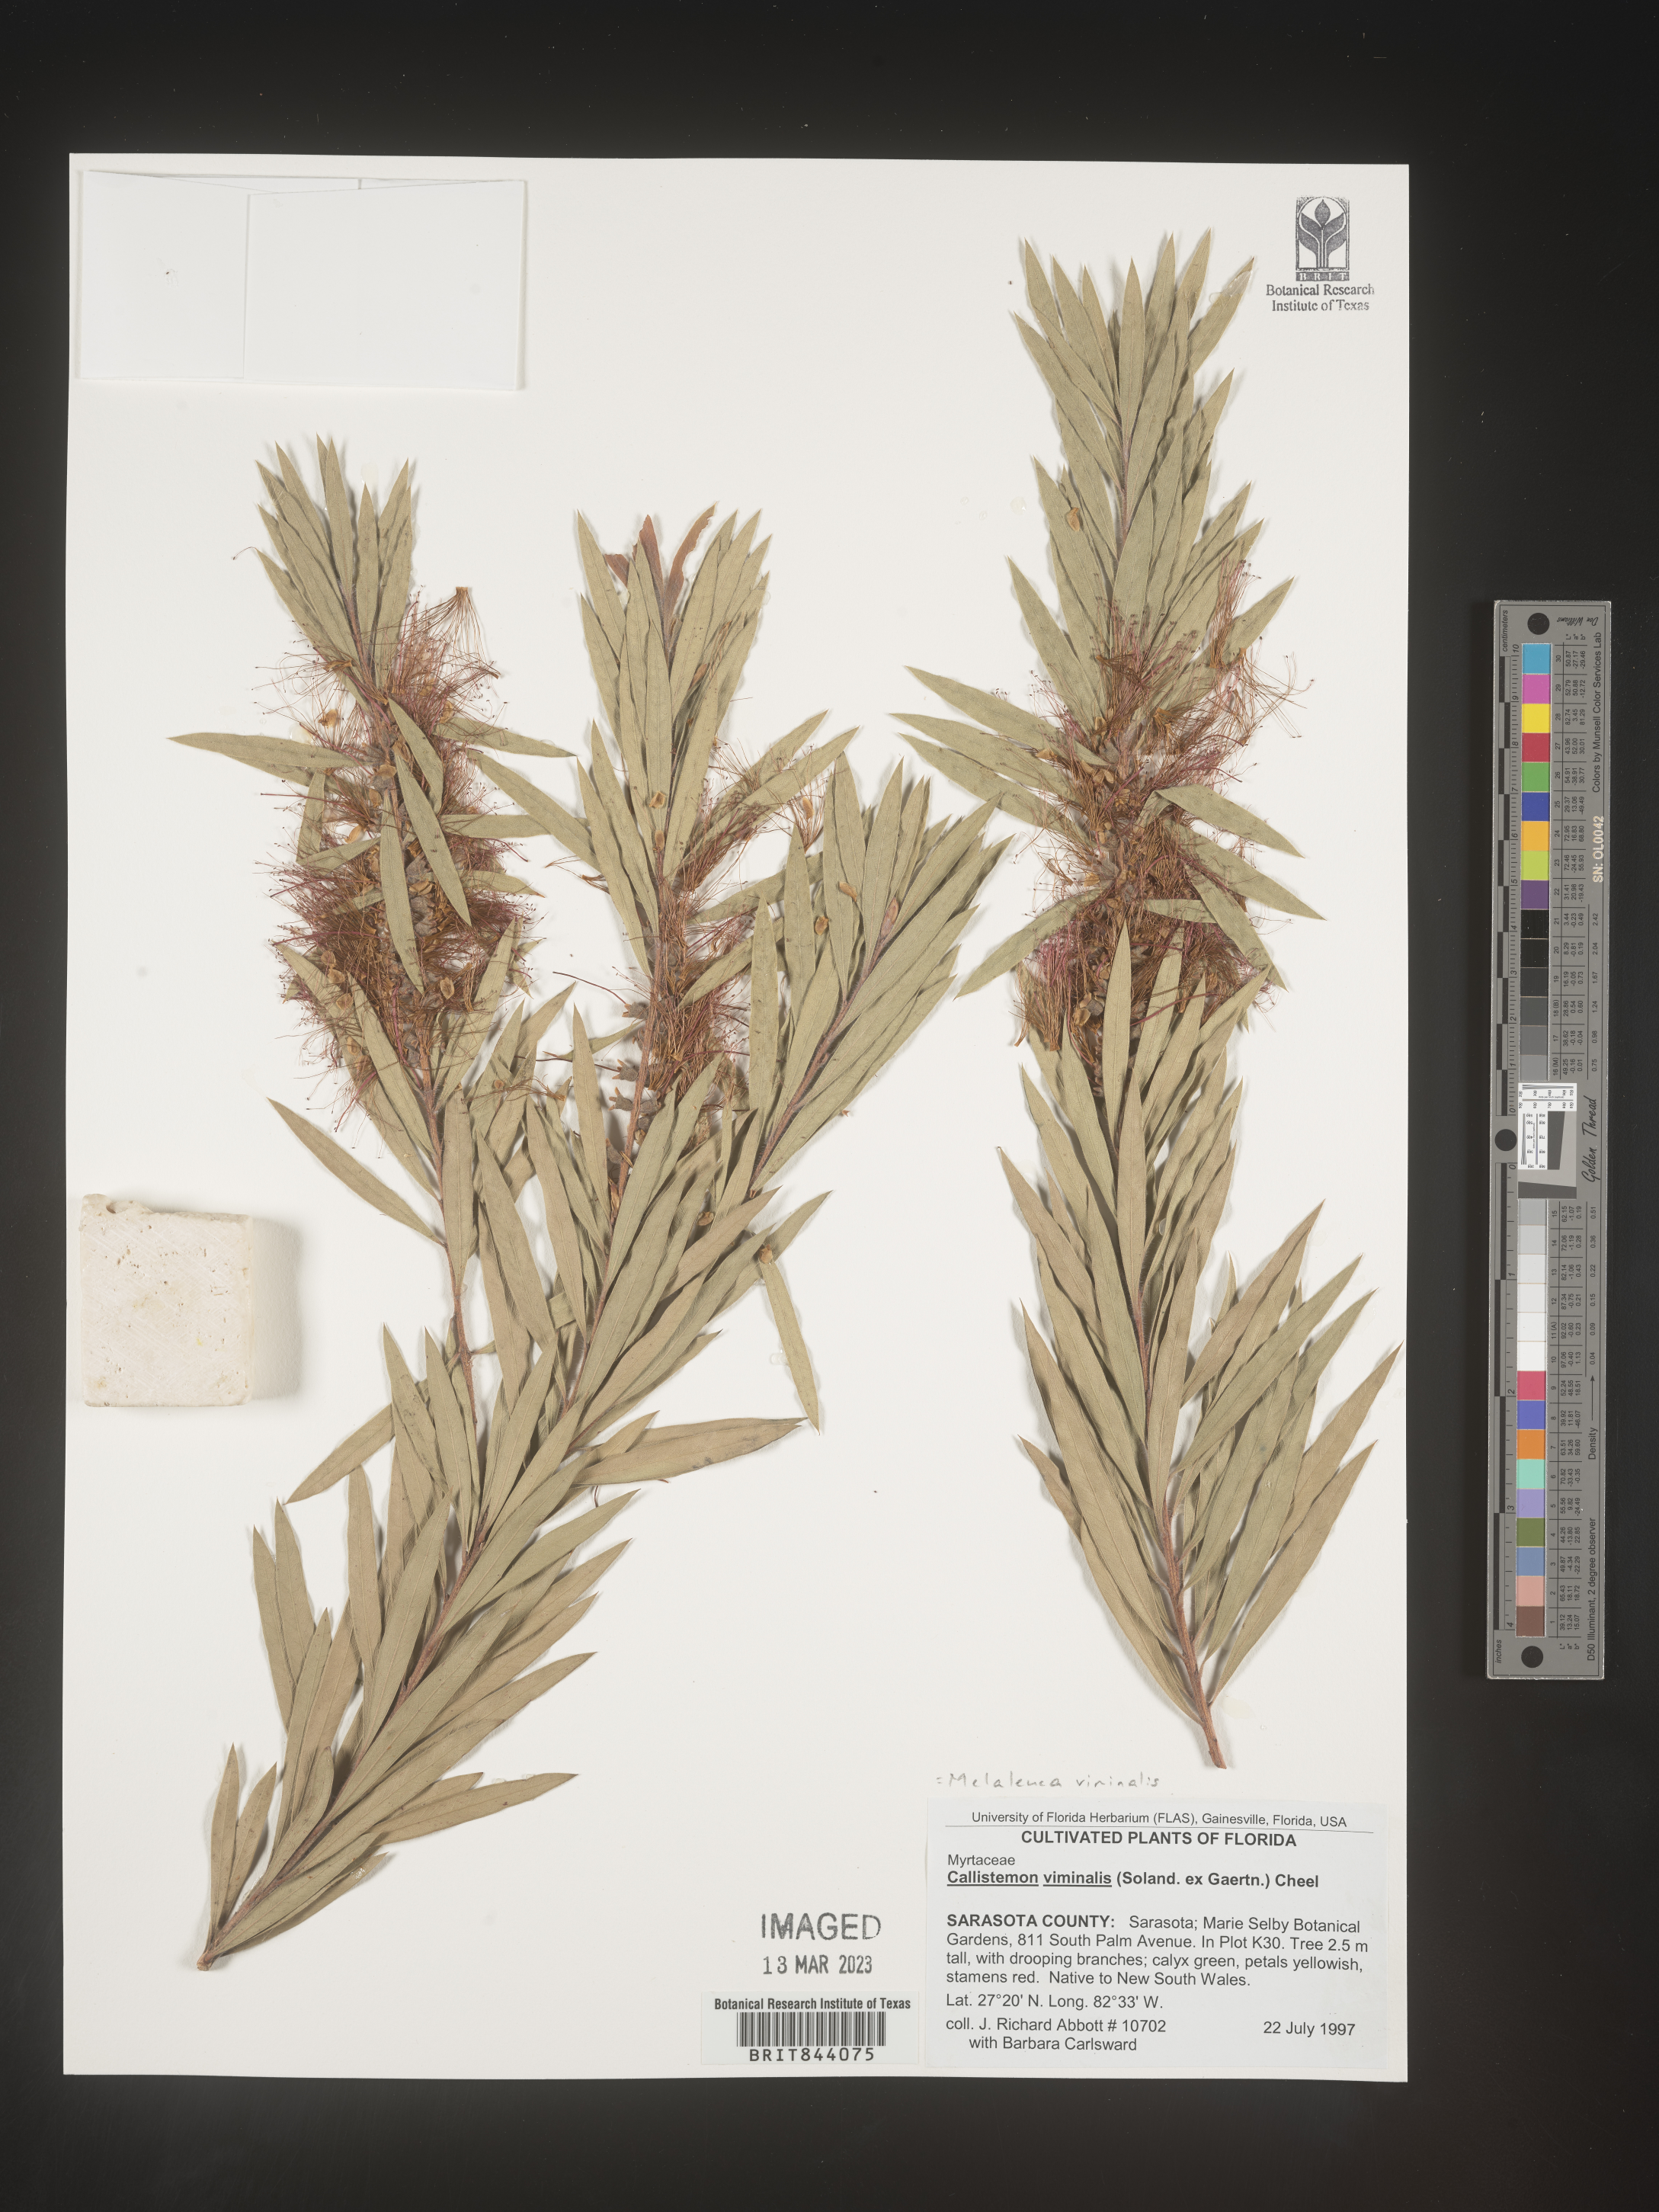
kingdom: Plantae
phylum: Tracheophyta
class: Magnoliopsida
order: Myrtales
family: Myrtaceae
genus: Callistemon
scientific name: Callistemon viminalis
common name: Drooping bottlebrush
